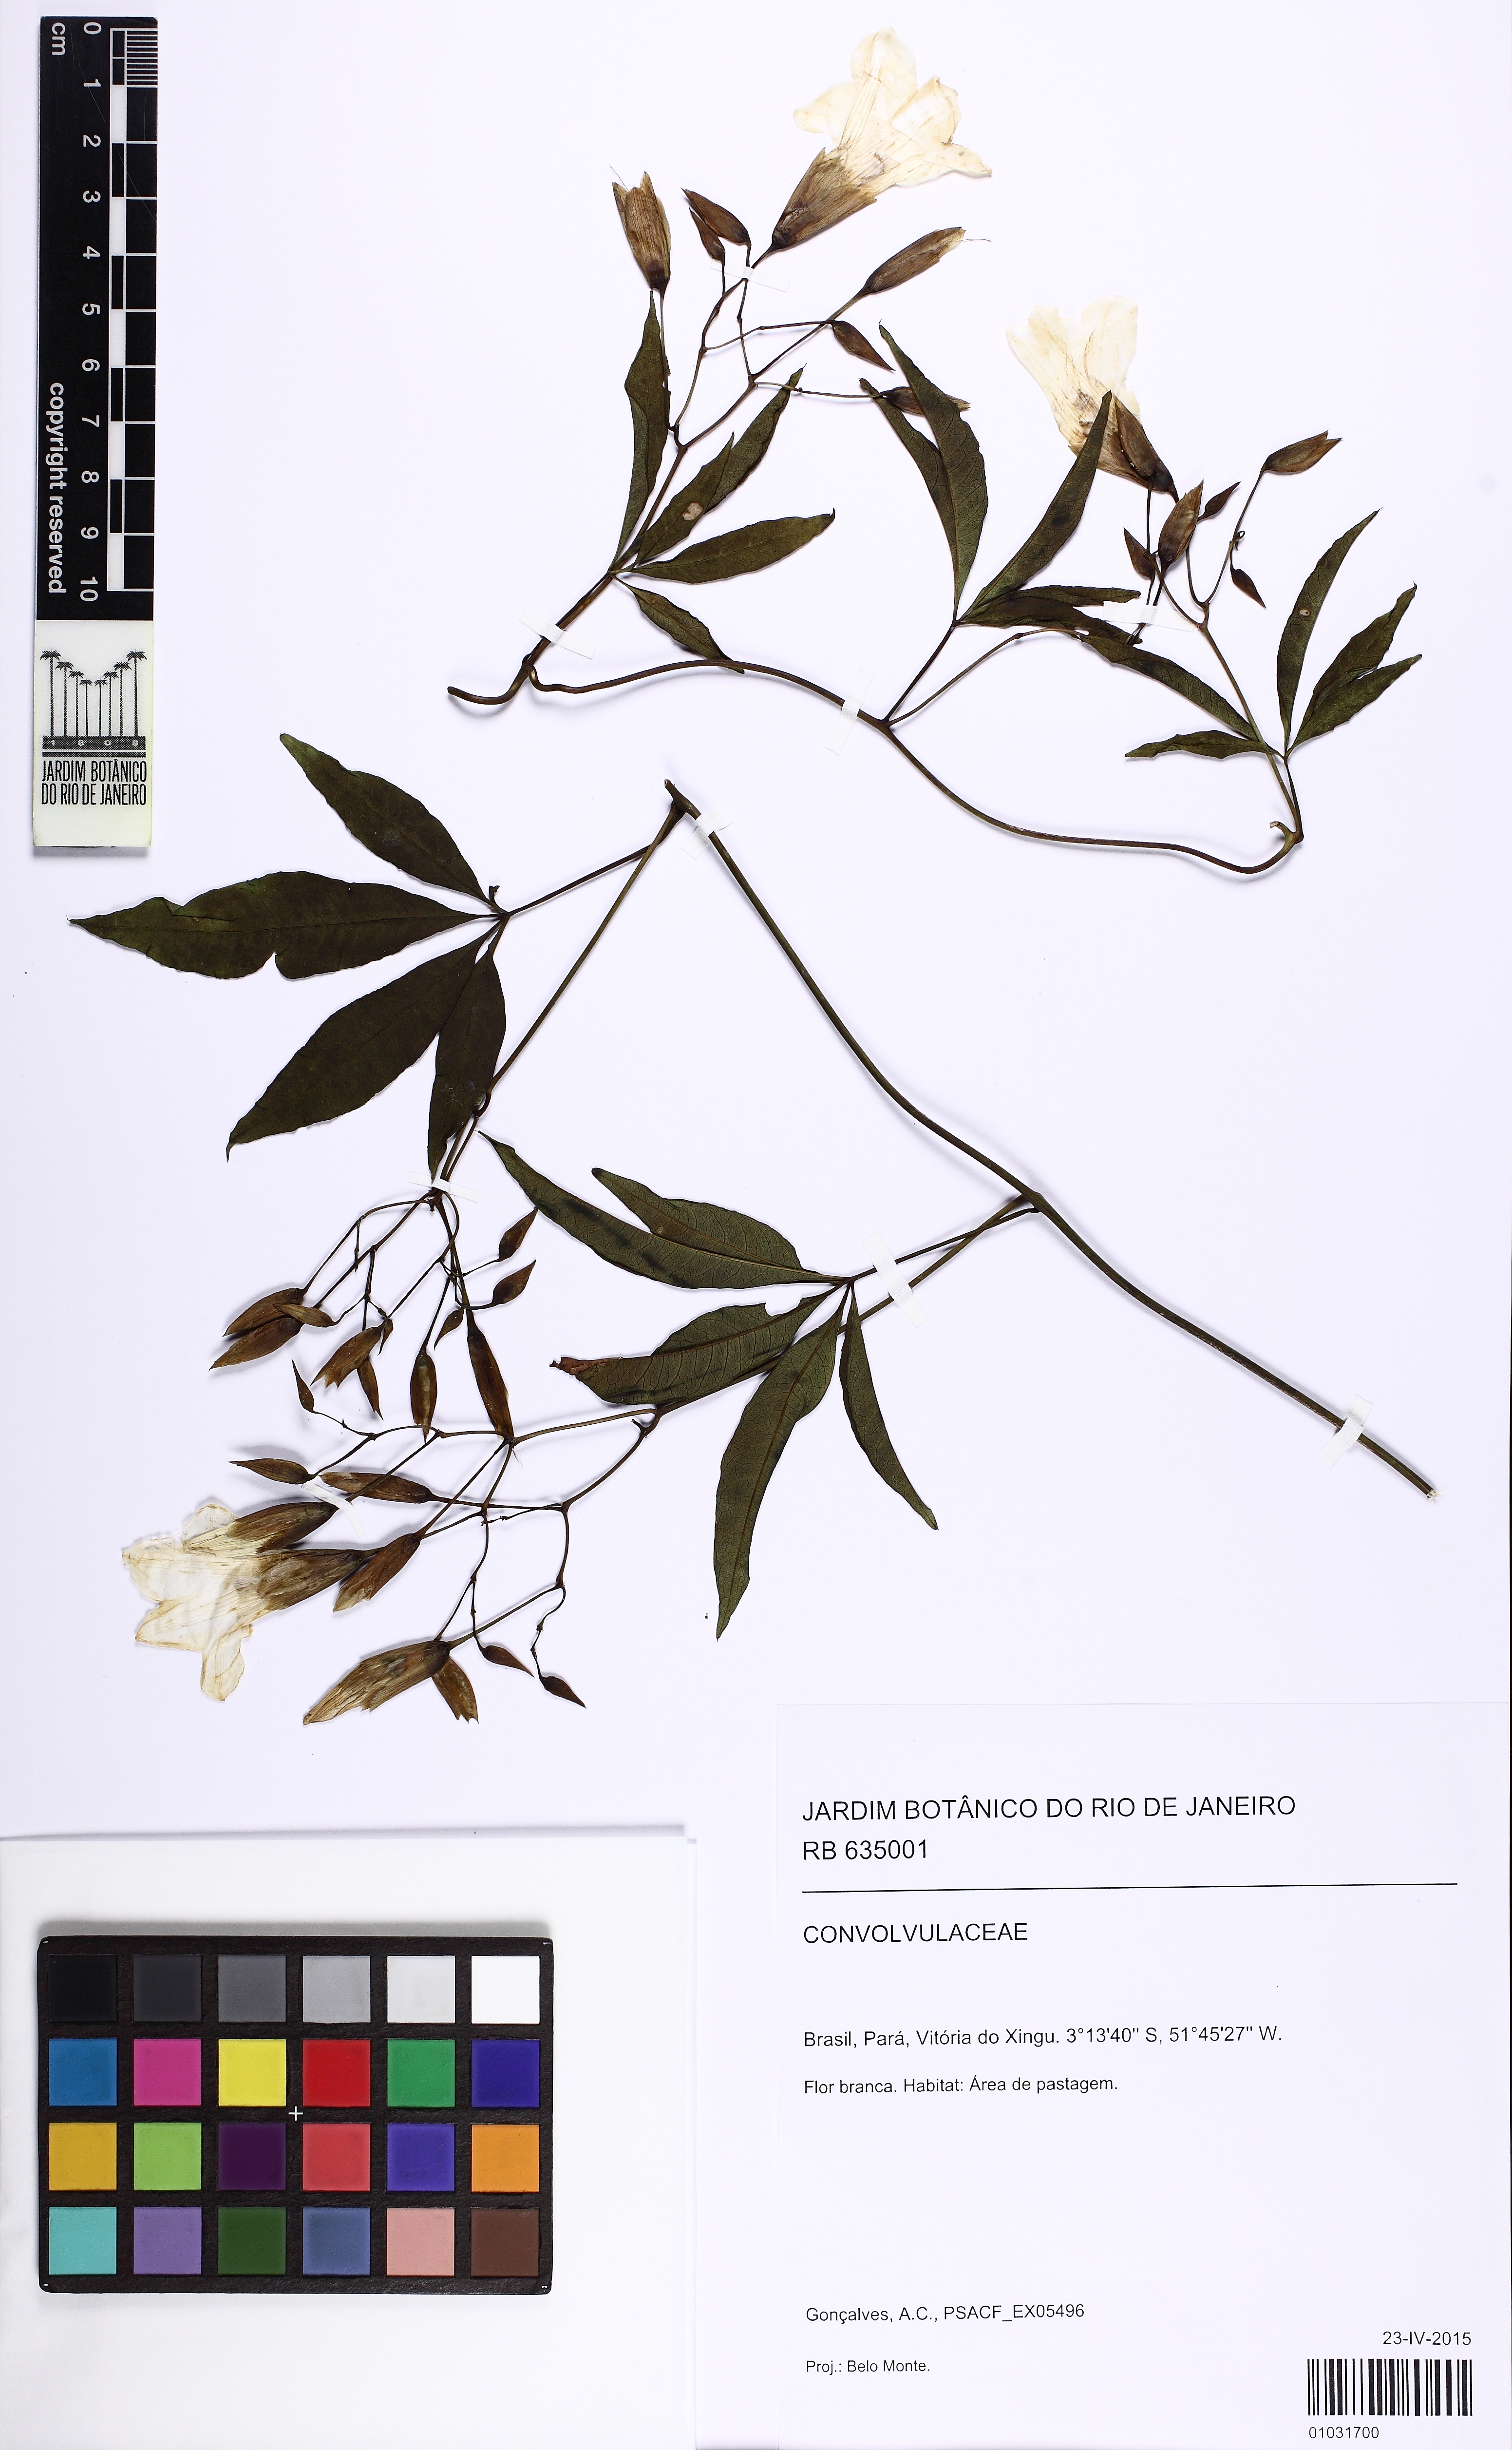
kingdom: Plantae
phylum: Tracheophyta
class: Magnoliopsida
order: Solanales
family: Convolvulaceae
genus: Distimake
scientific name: Distimake macrocalyx
